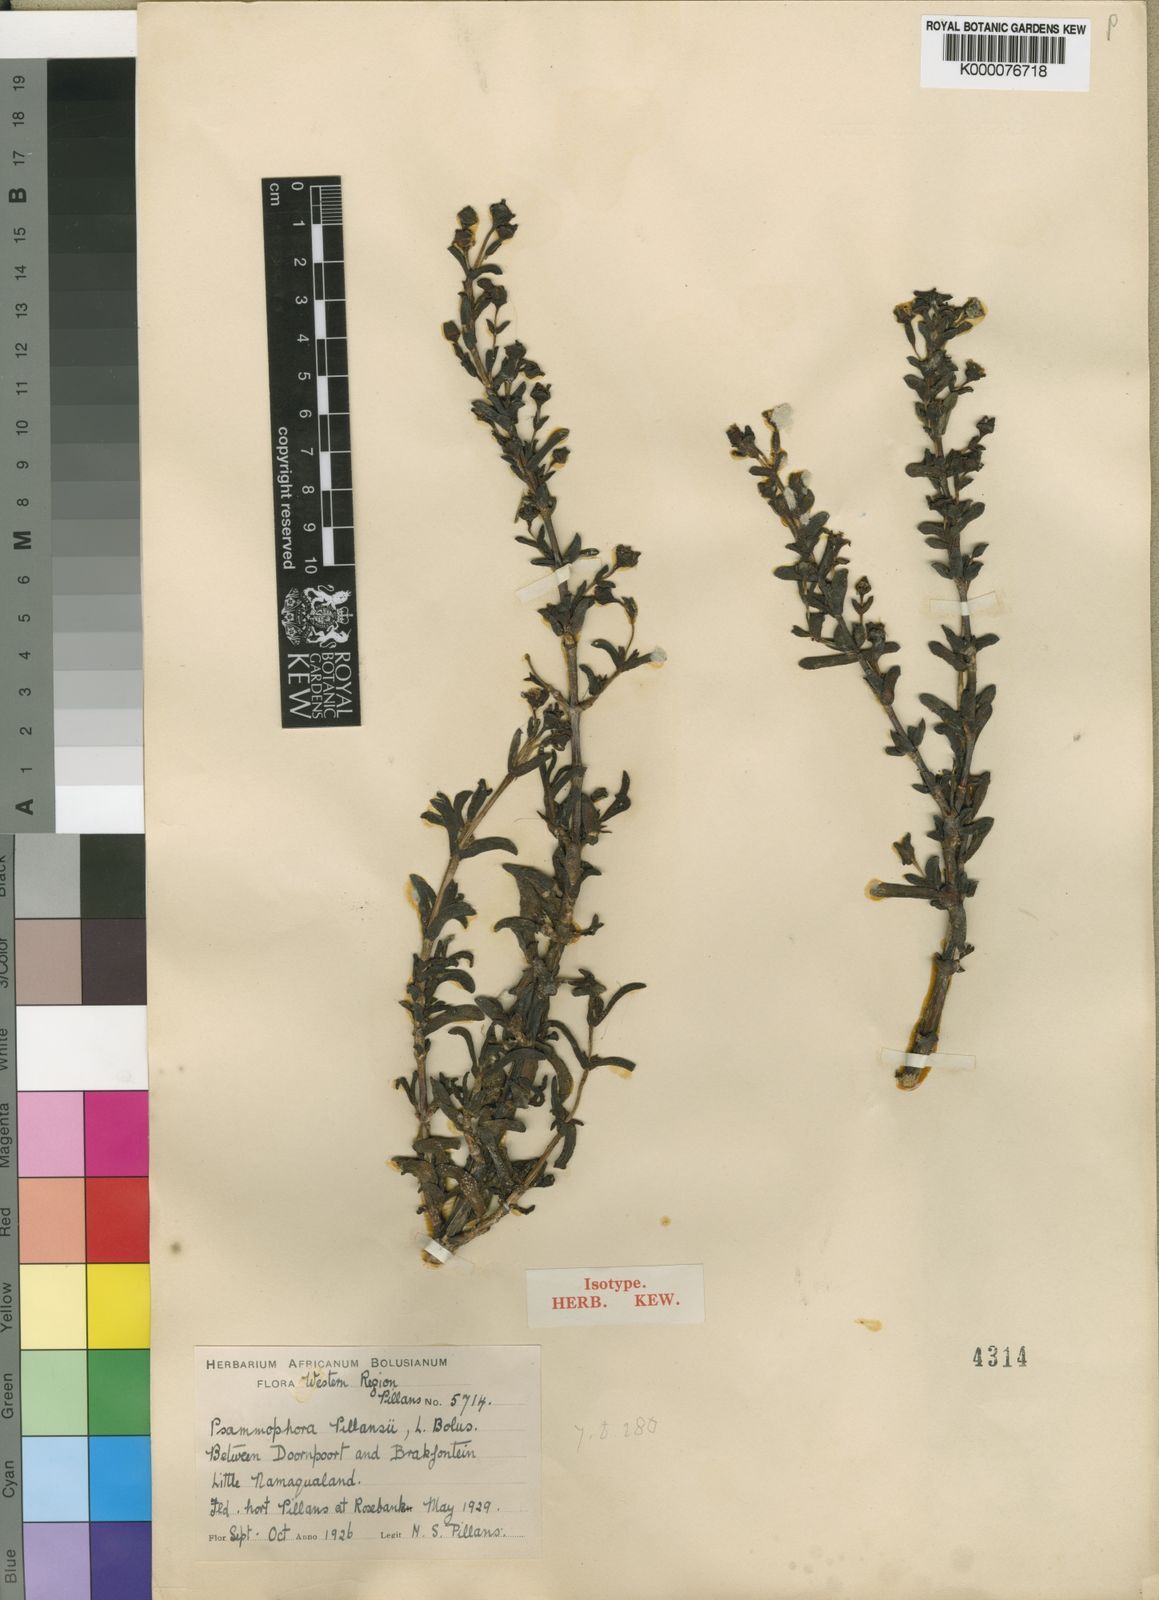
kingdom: Plantae
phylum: Tracheophyta
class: Magnoliopsida
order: Caryophyllales
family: Aizoaceae
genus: Mesembryanthemum
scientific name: Mesembryanthemum tomentosum
